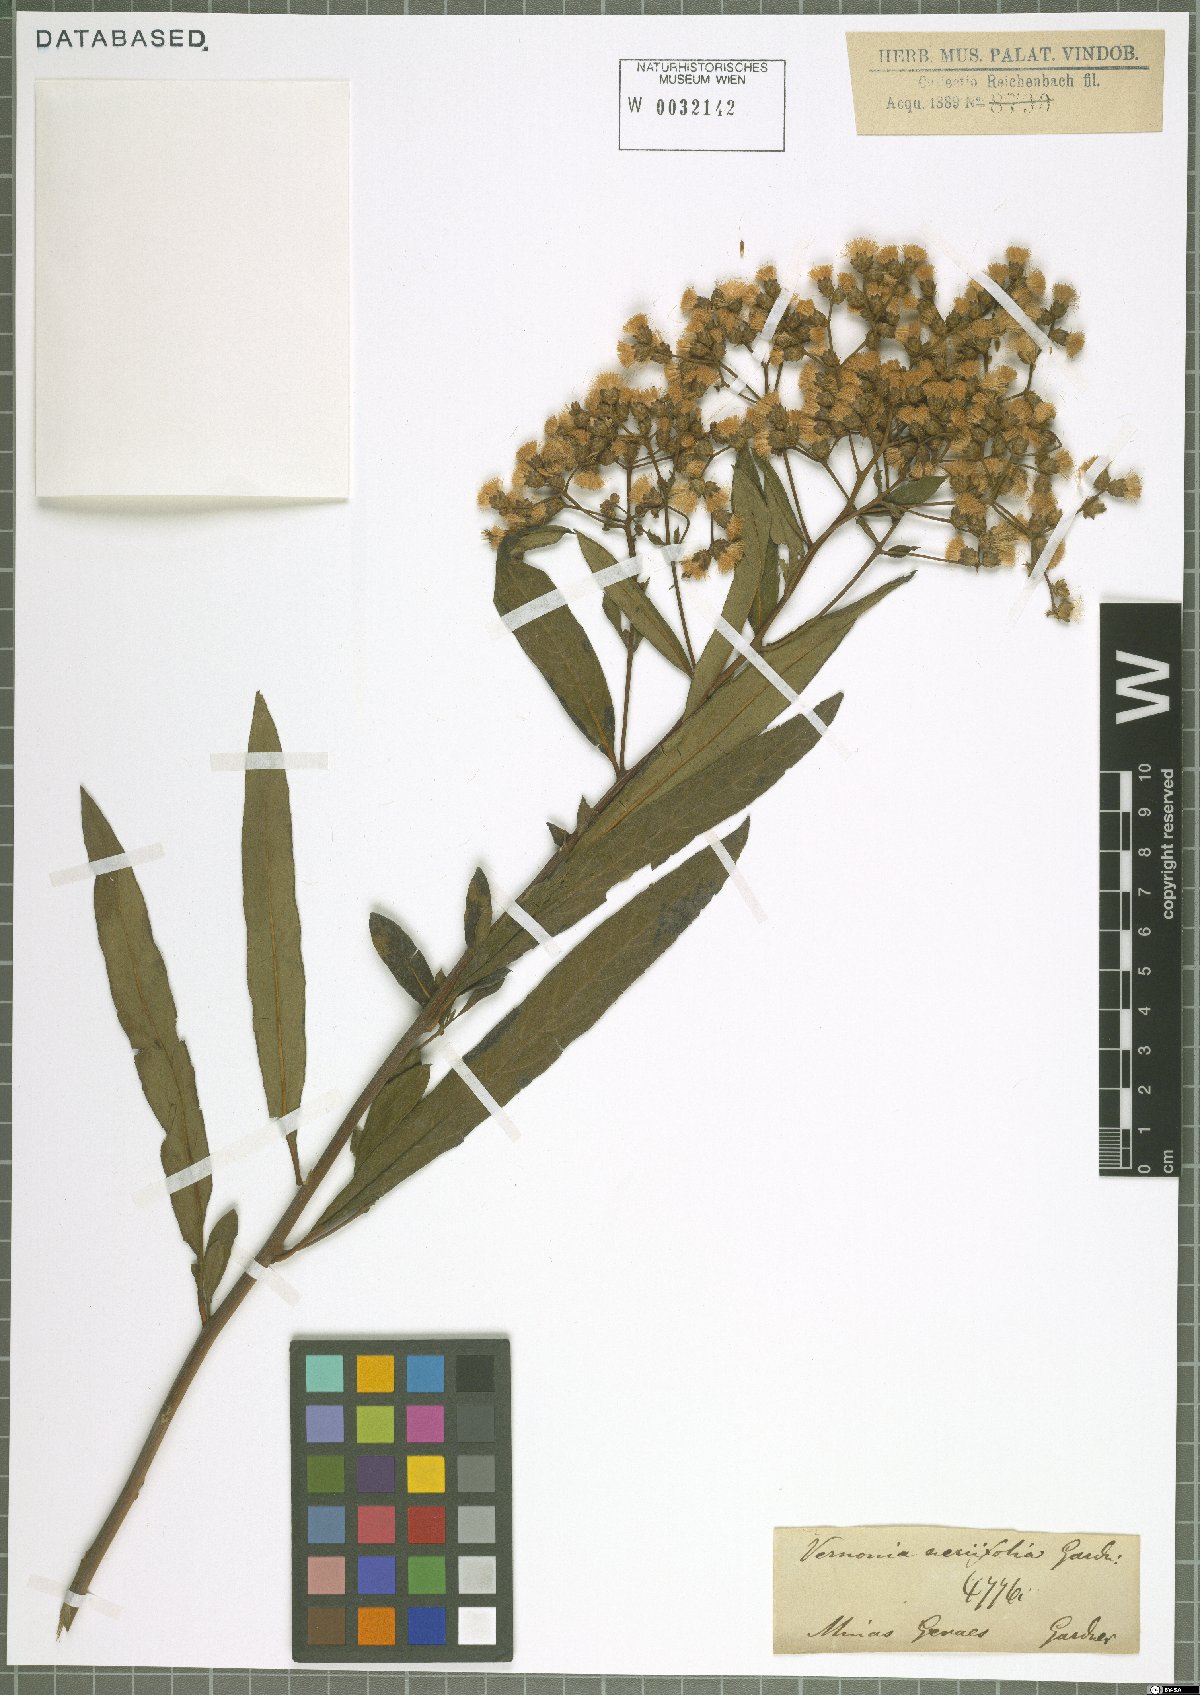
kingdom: Plantae
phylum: Tracheophyta
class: Magnoliopsida
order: Asterales
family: Asteraceae
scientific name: Asteraceae
